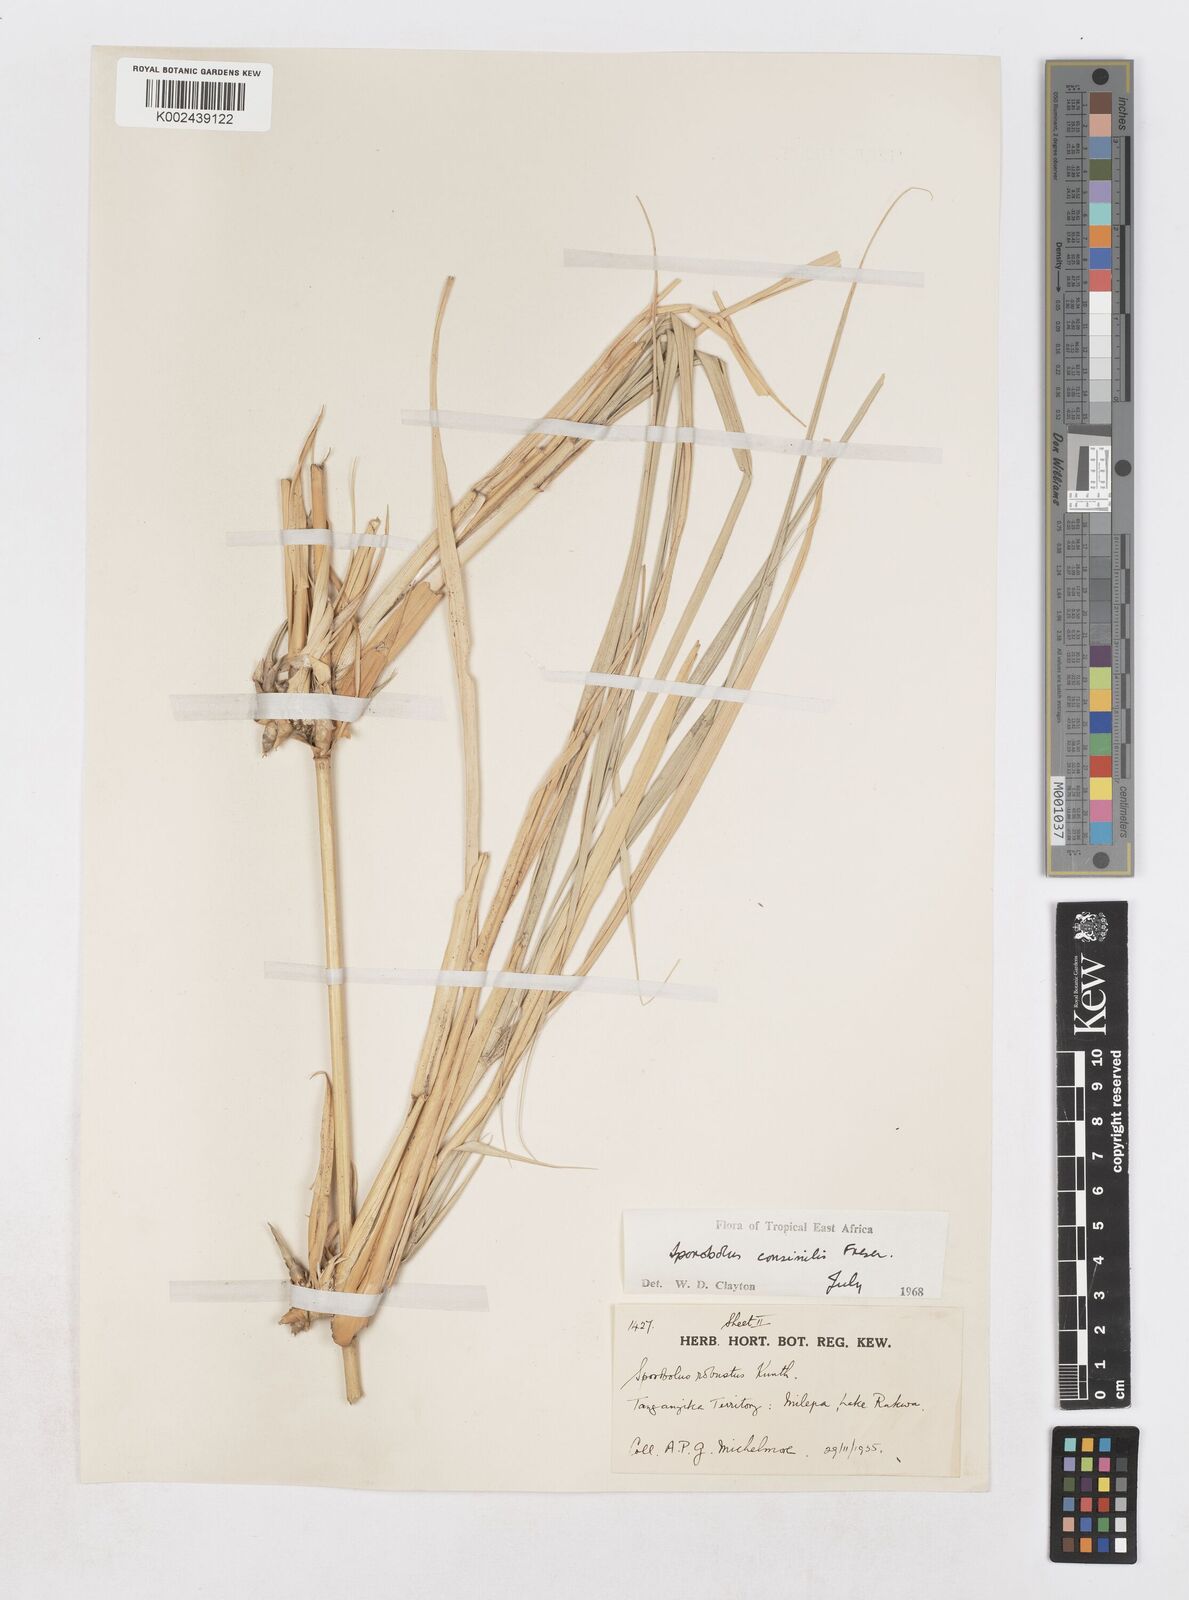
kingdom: Plantae
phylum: Tracheophyta
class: Liliopsida
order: Poales
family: Poaceae
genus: Sporobolus
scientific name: Sporobolus consimilis
